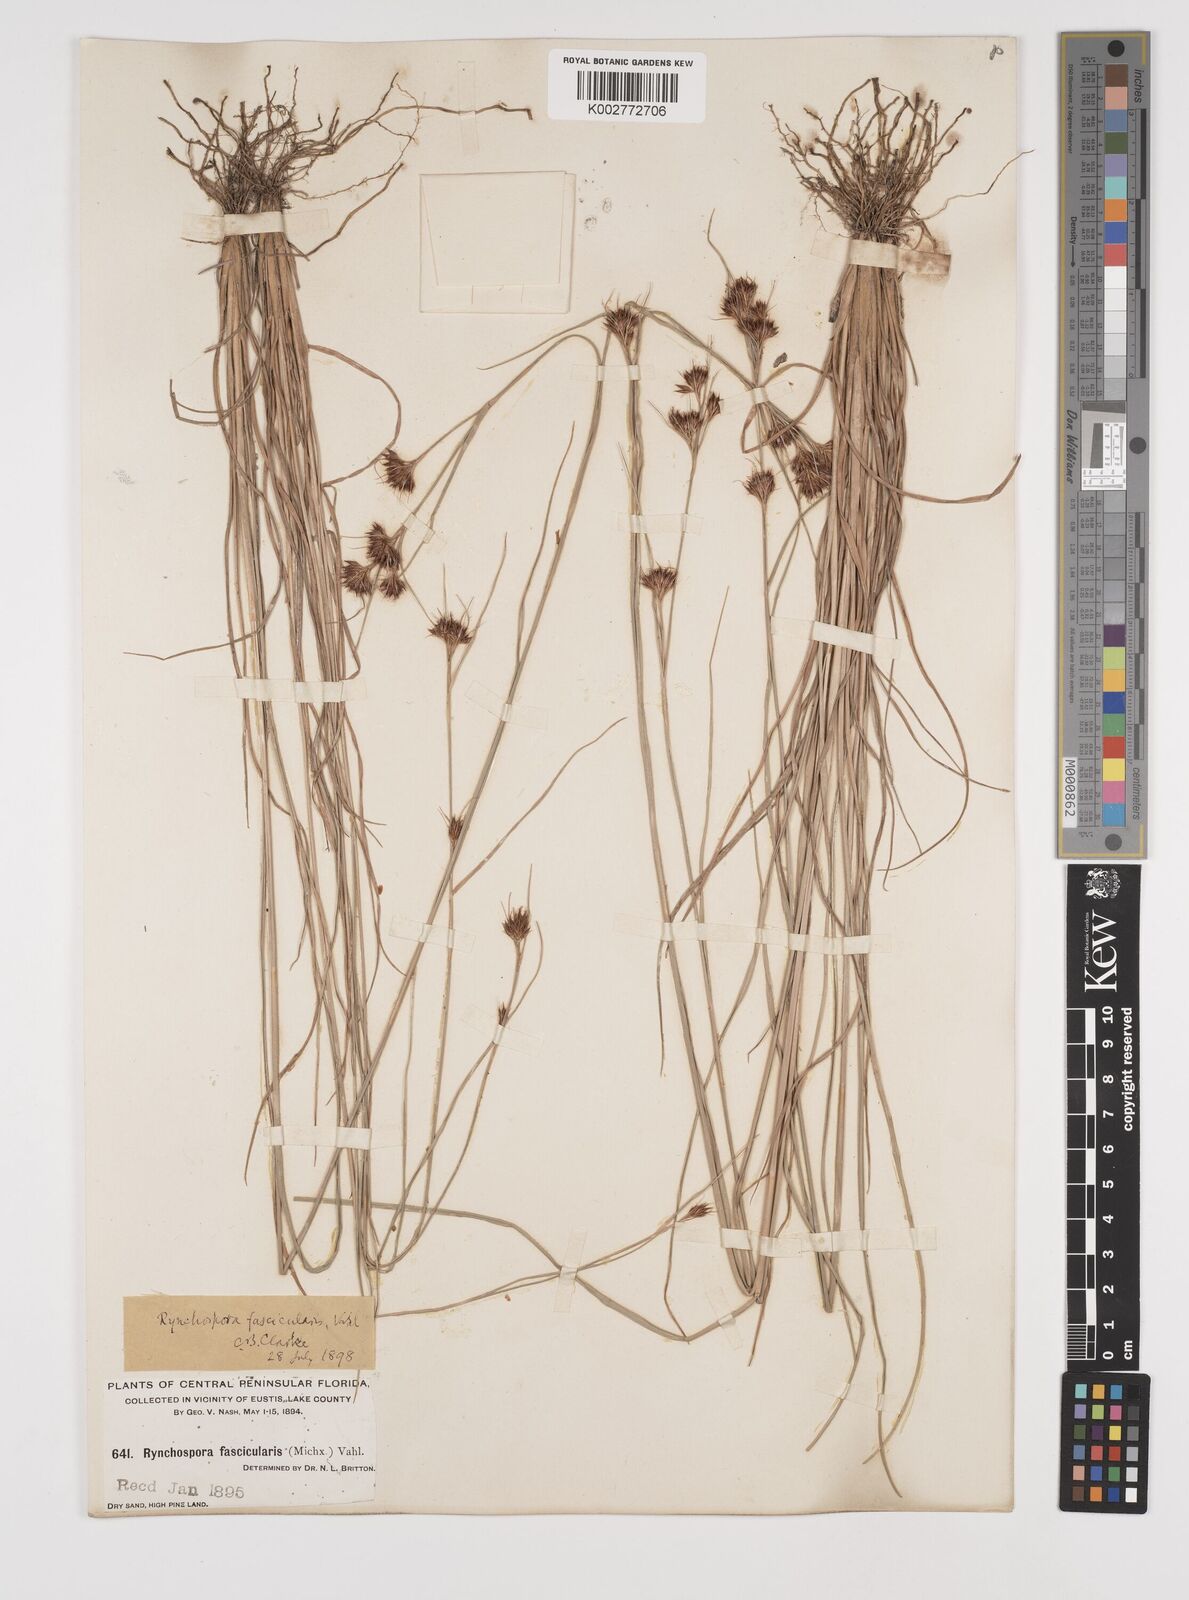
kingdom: Plantae
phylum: Tracheophyta
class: Liliopsida
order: Poales
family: Cyperaceae
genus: Rhynchospora
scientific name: Rhynchospora fascicularis
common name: Fascicled beak sedge
